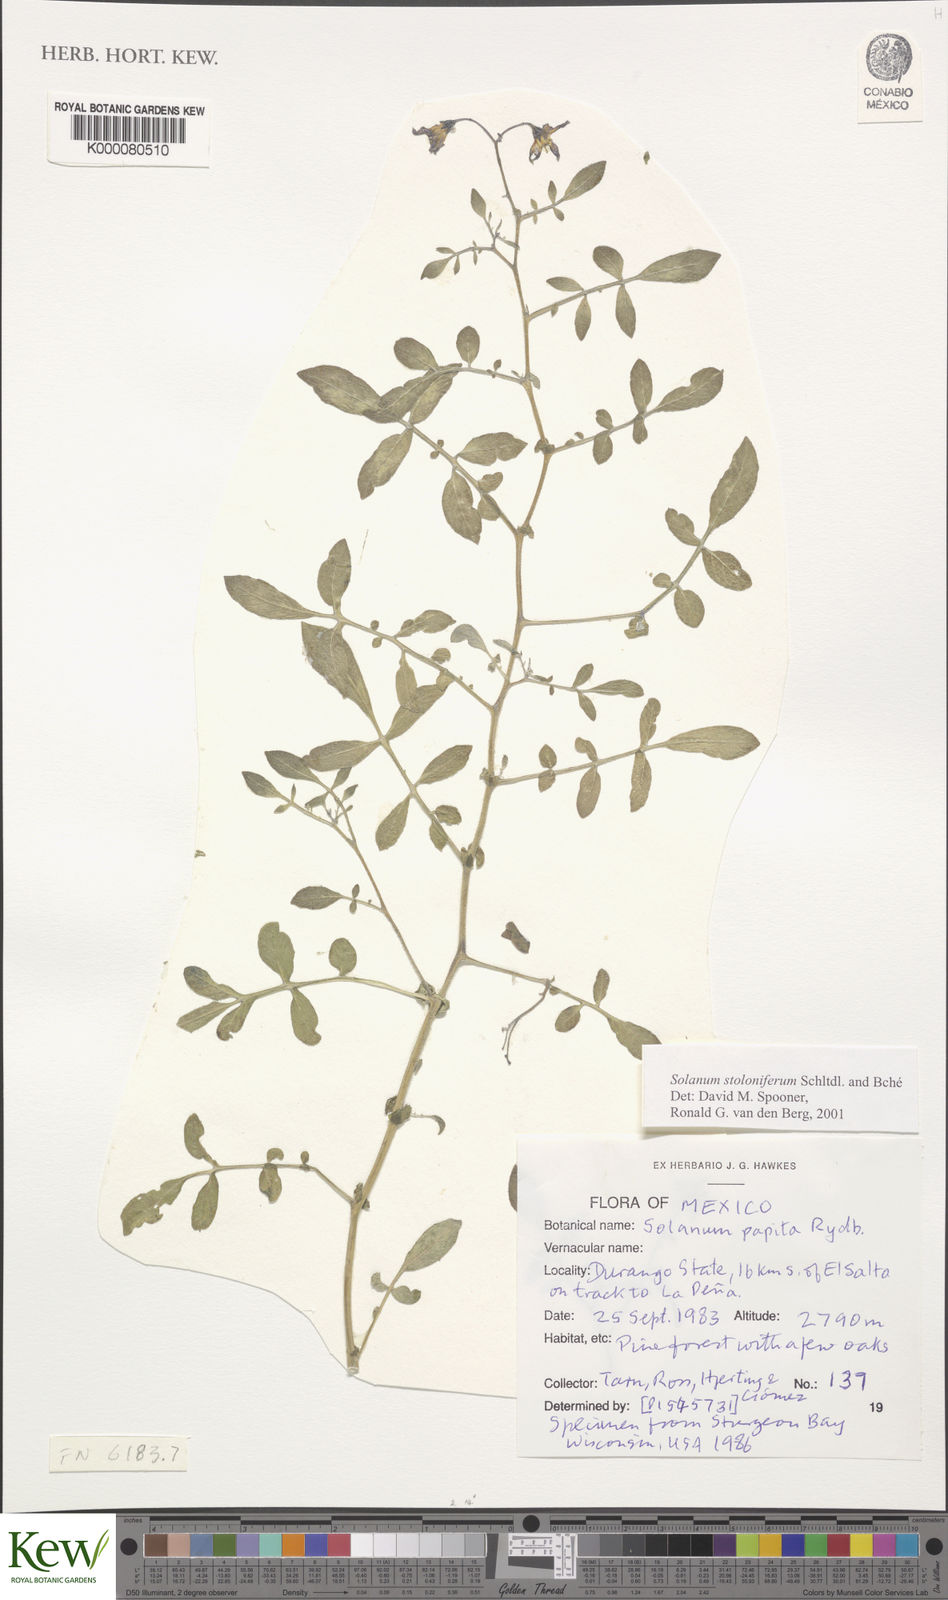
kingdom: Plantae
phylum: Tracheophyta
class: Magnoliopsida
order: Solanales
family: Solanaceae
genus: Solanum
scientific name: Solanum stoloniferum
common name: Fendler's nighshade
